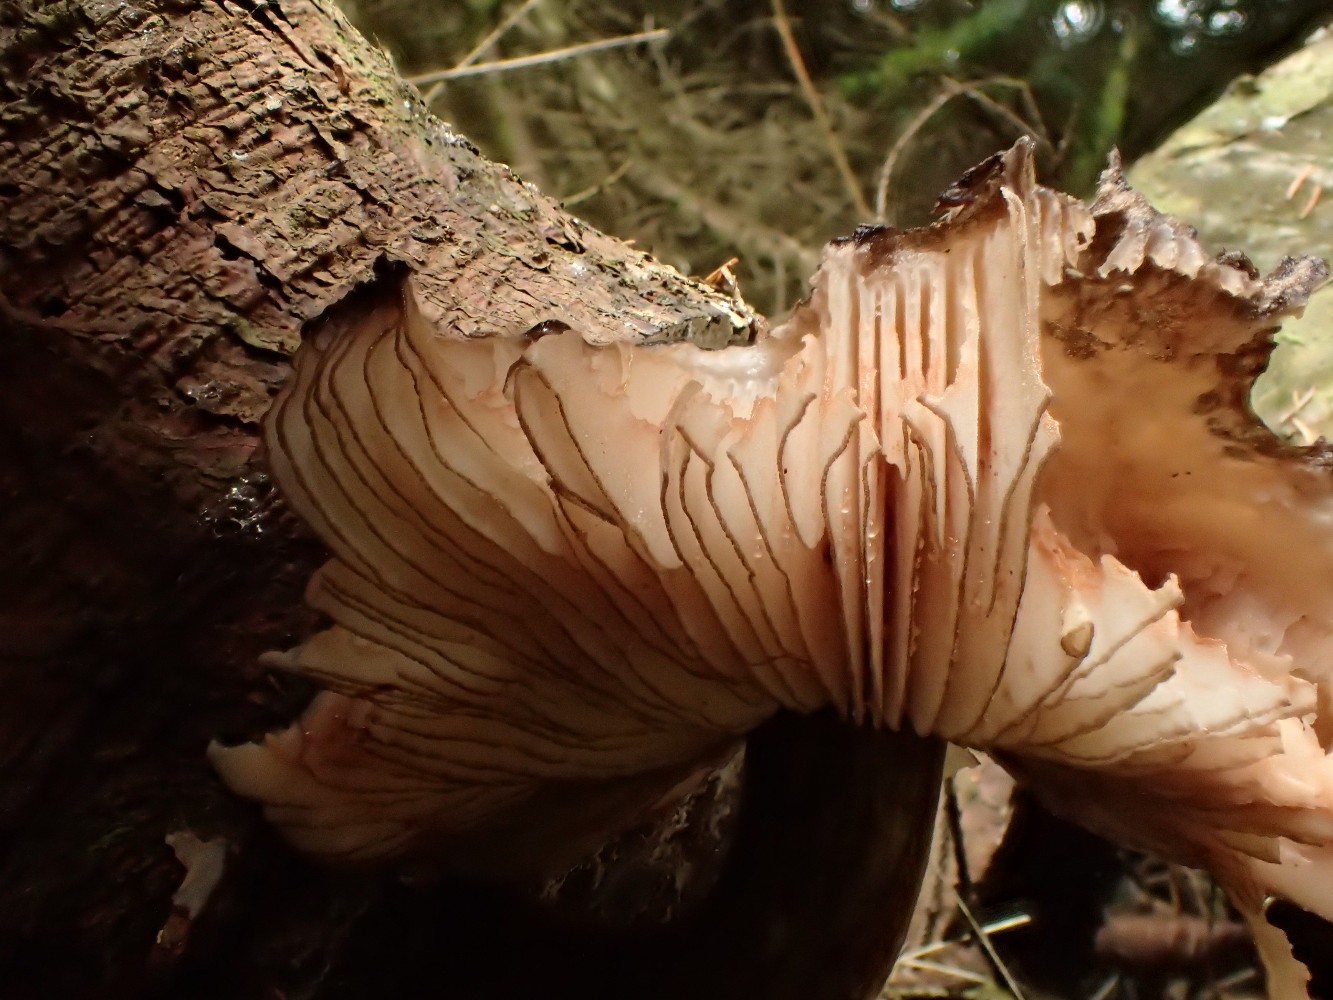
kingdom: Fungi
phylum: Basidiomycota
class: Agaricomycetes
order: Agaricales
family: Pluteaceae
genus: Pluteus
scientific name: Pluteus atromarginatus
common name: sortrandet skærmhat
